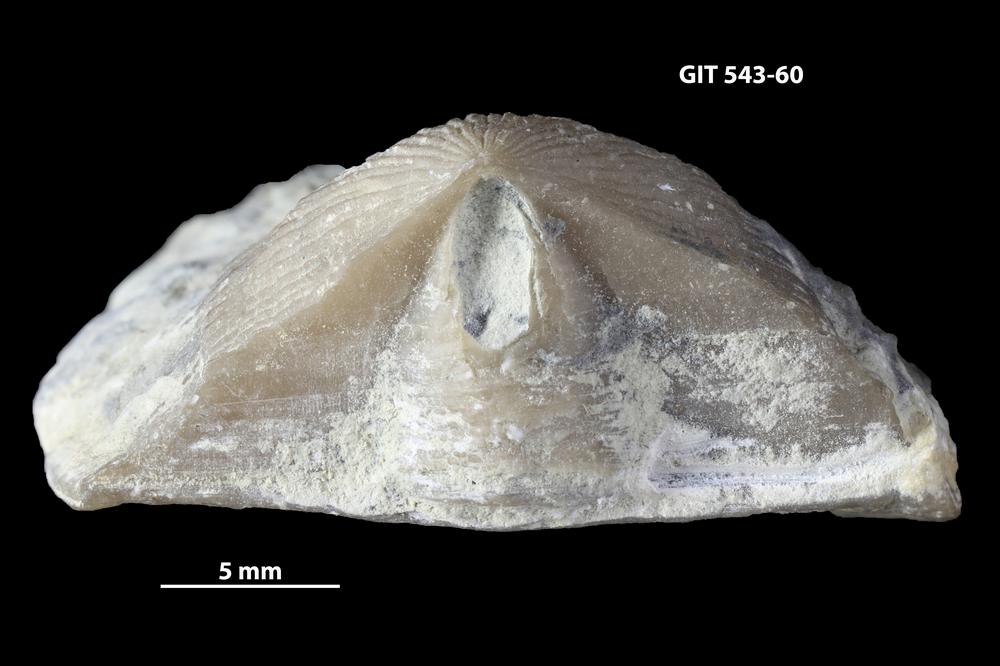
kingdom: Animalia
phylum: Brachiopoda
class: Rhynchonellata
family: Clitambonitidae
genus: Vellamo
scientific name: Vellamo
